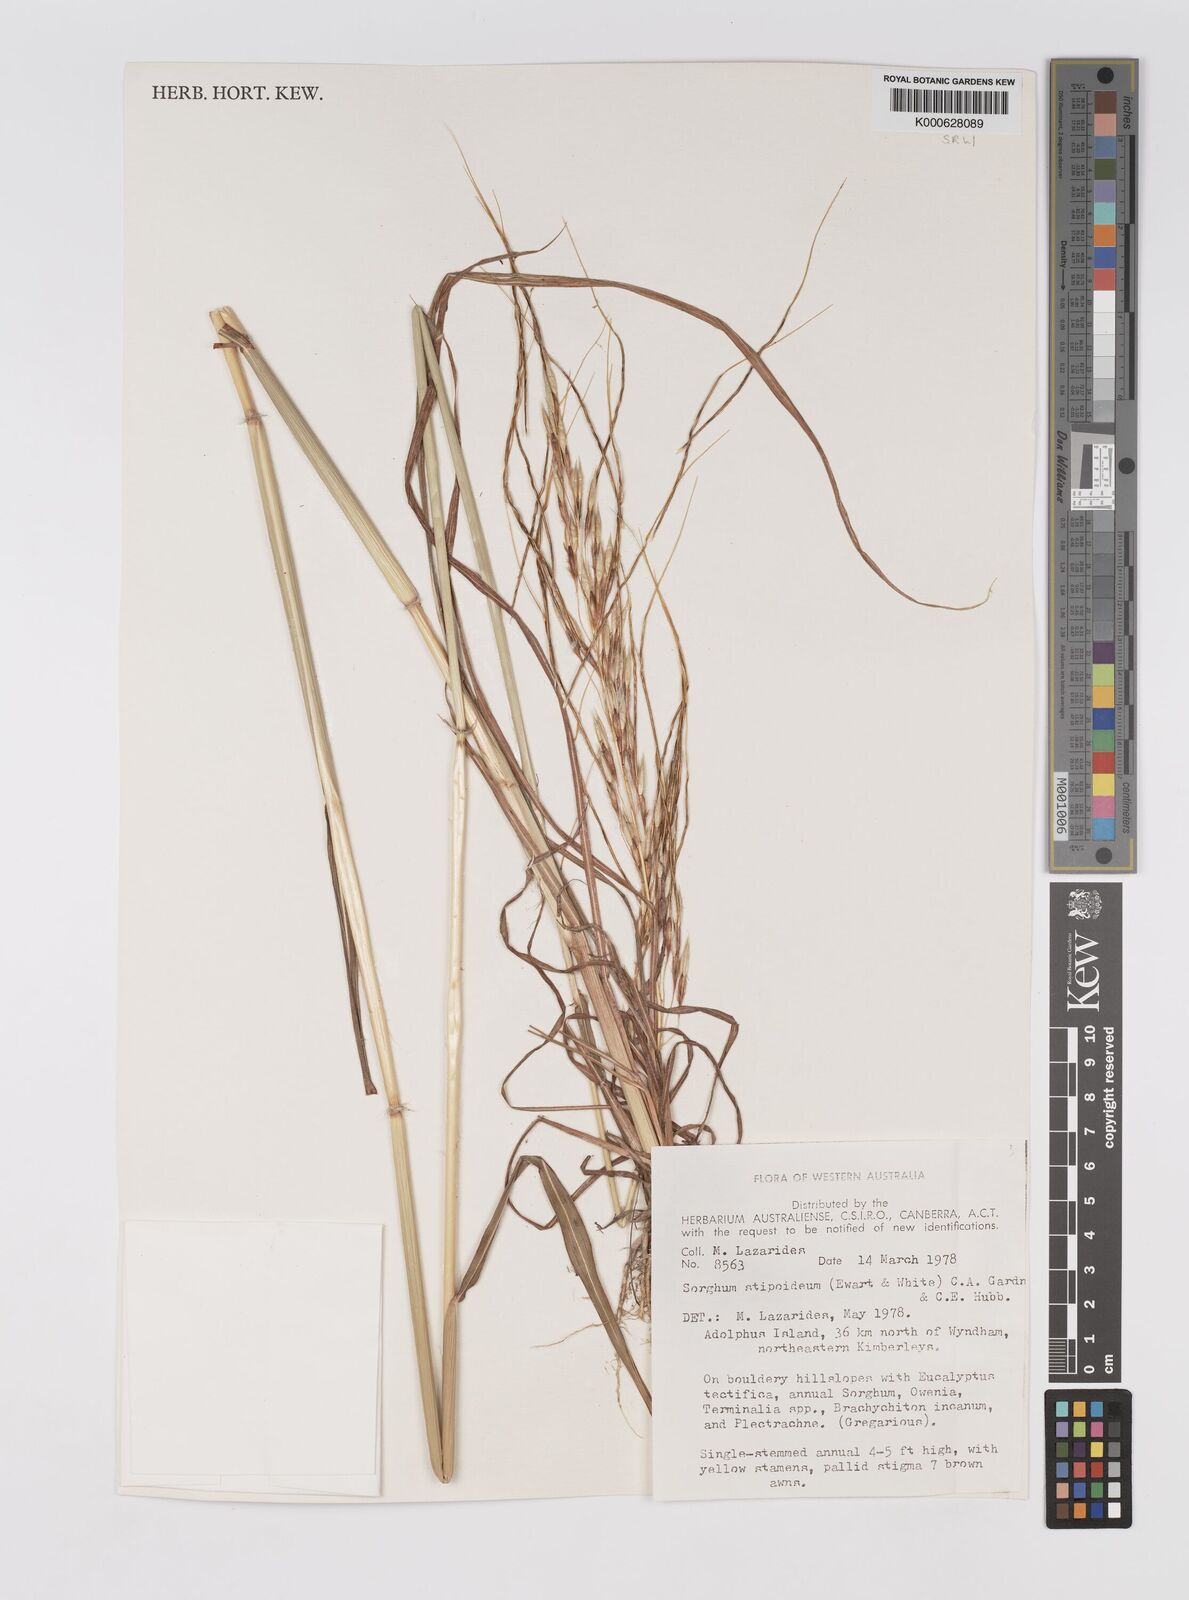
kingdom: Plantae
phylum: Tracheophyta
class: Liliopsida
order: Poales
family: Poaceae
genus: Sarga
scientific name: Sarga stipoidea
